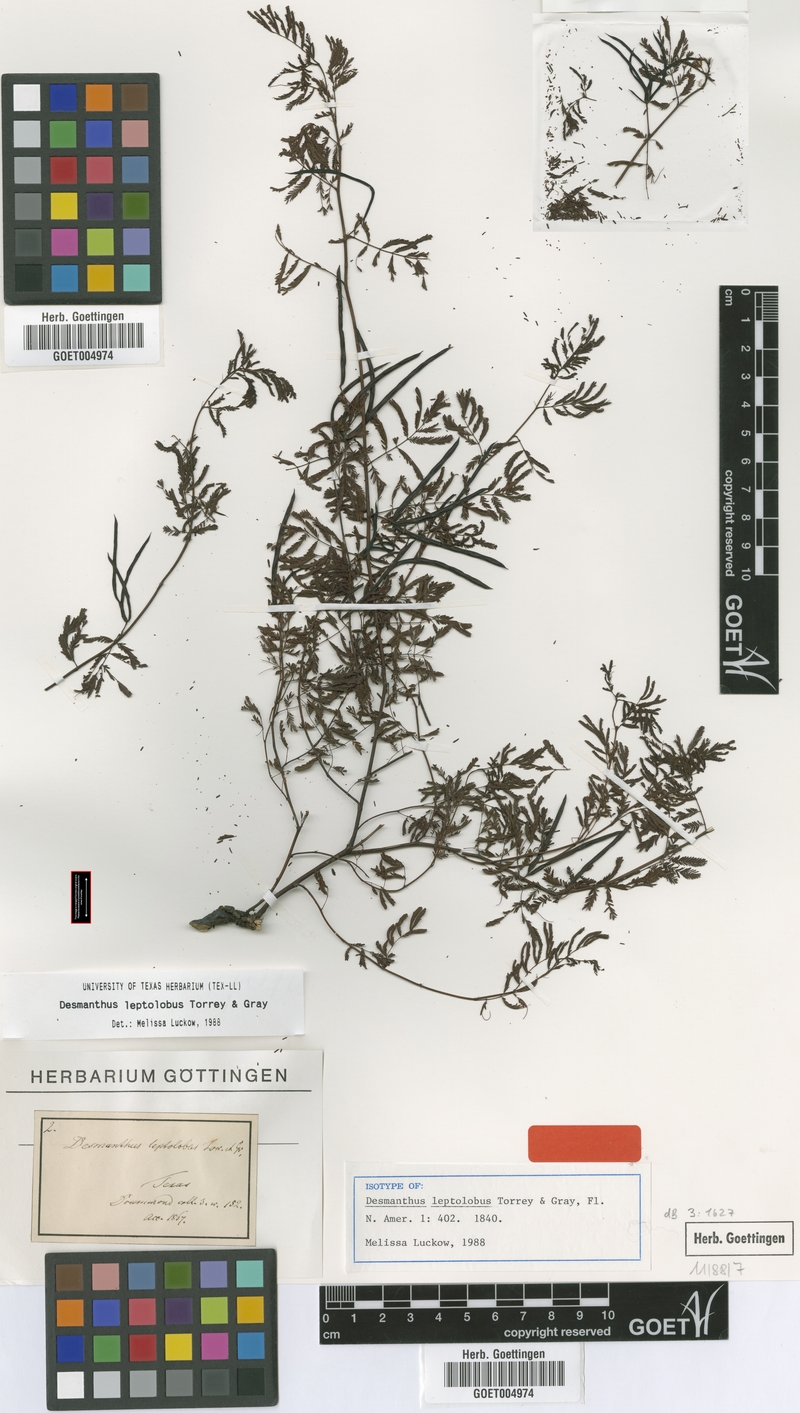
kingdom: Plantae
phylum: Tracheophyta
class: Magnoliopsida
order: Fabales
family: Fabaceae
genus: Desmanthus
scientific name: Desmanthus leptolobus
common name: Prairie-mimosa
